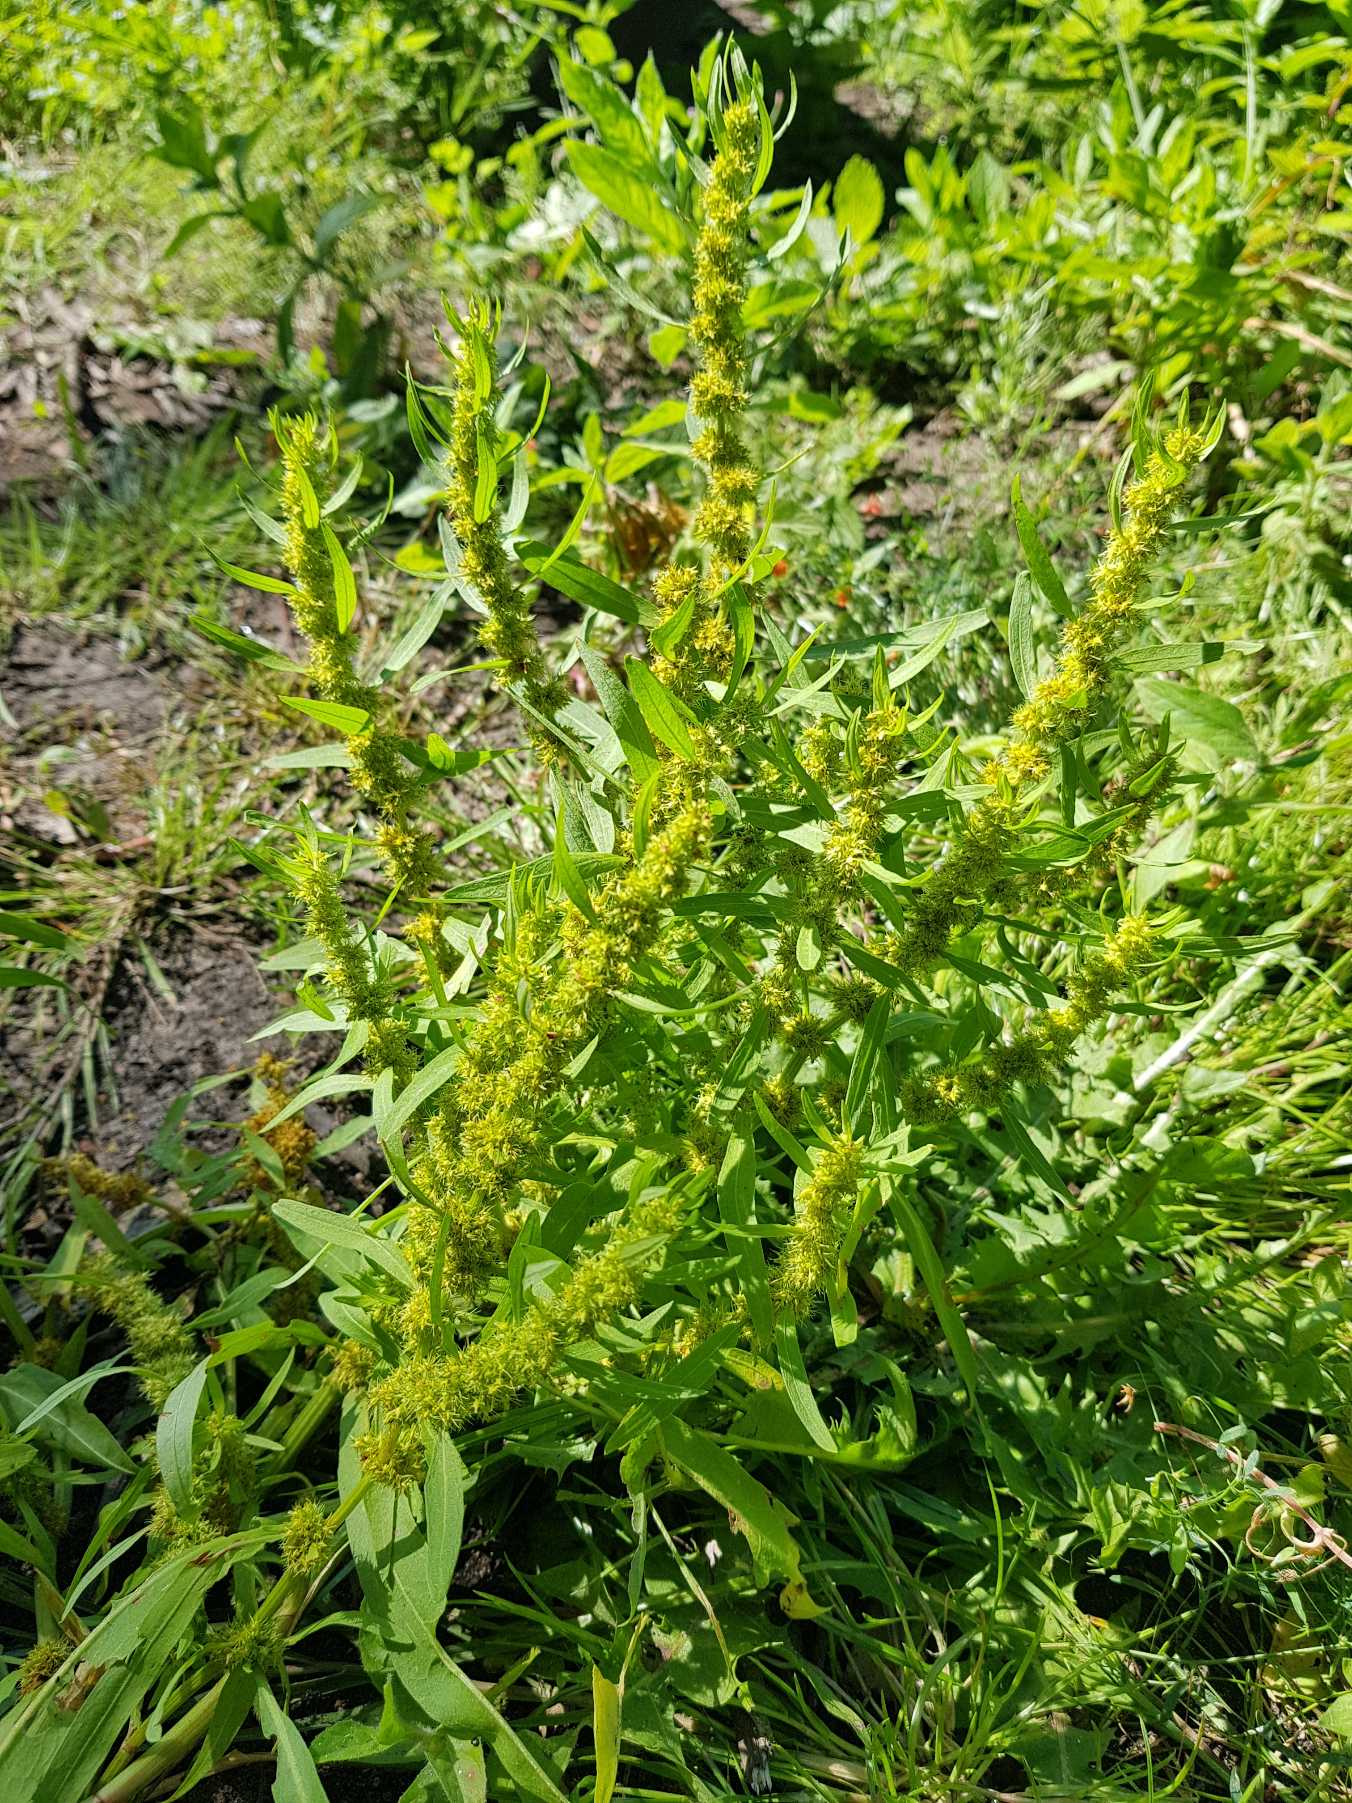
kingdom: Plantae
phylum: Tracheophyta
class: Magnoliopsida
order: Caryophyllales
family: Polygonaceae
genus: Rumex
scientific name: Rumex maritimus
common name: Strand-skræppe
